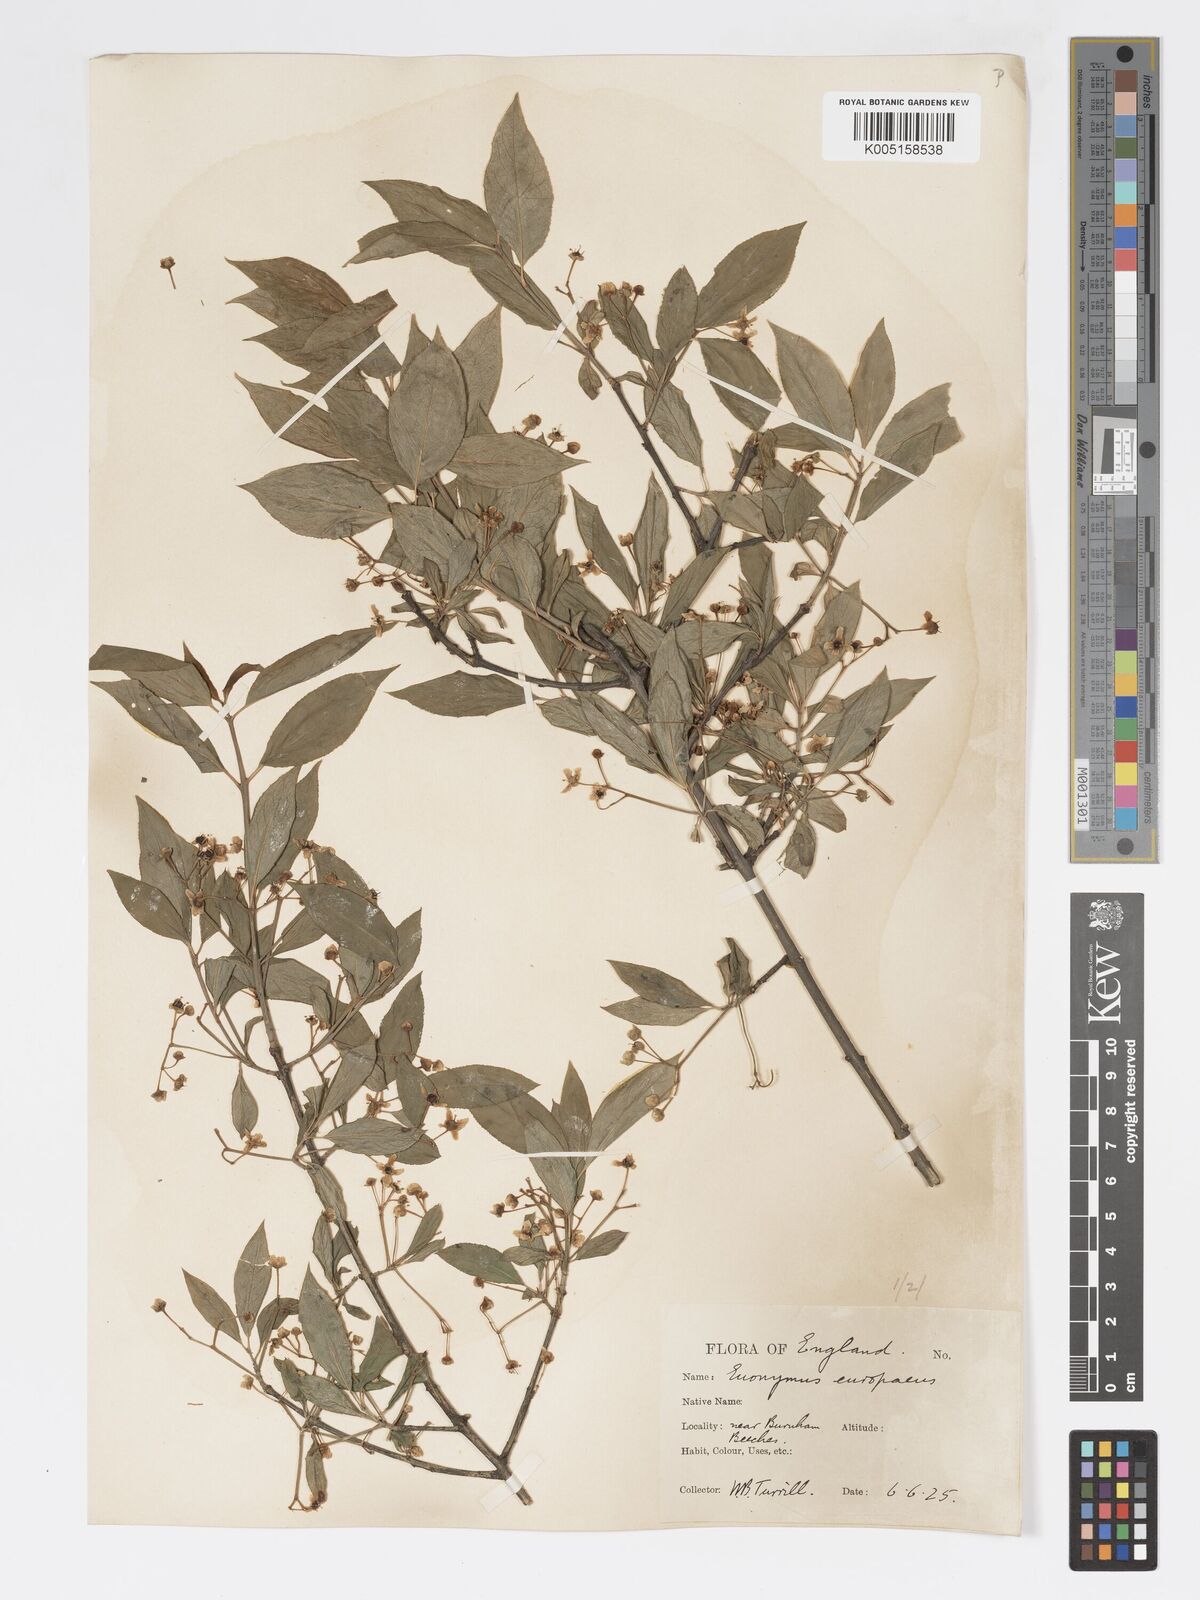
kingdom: Plantae
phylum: Tracheophyta
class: Magnoliopsida
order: Celastrales
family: Celastraceae
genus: Euonymus
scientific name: Euonymus
